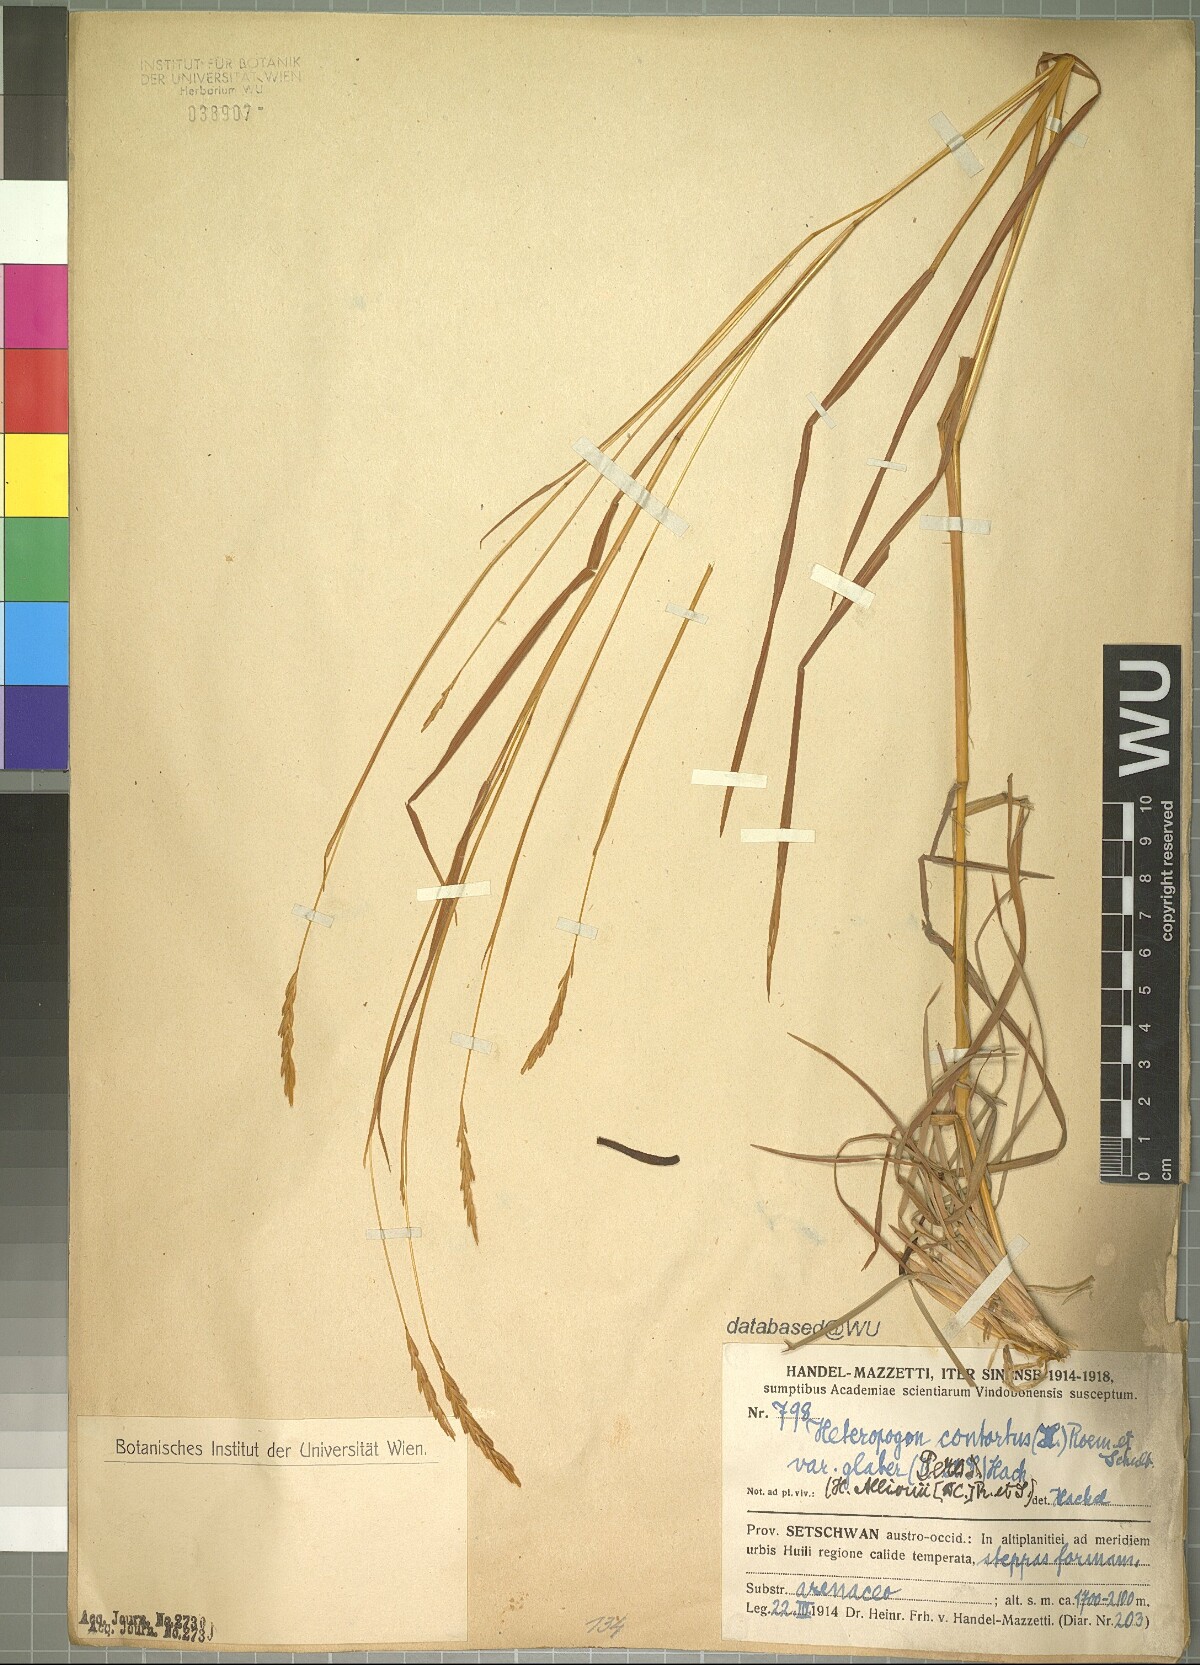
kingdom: Plantae
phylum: Tracheophyta
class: Liliopsida
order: Poales
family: Poaceae
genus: Heteropogon
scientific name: Heteropogon contortus
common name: Tanglehead
